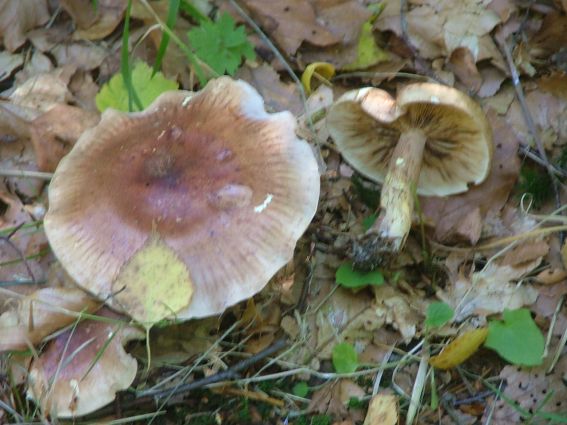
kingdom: Fungi
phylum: Basidiomycota
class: Agaricomycetes
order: Agaricales
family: Tricholomataceae
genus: Tricholoma
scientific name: Tricholoma fulvum
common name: birke-ridderhat
